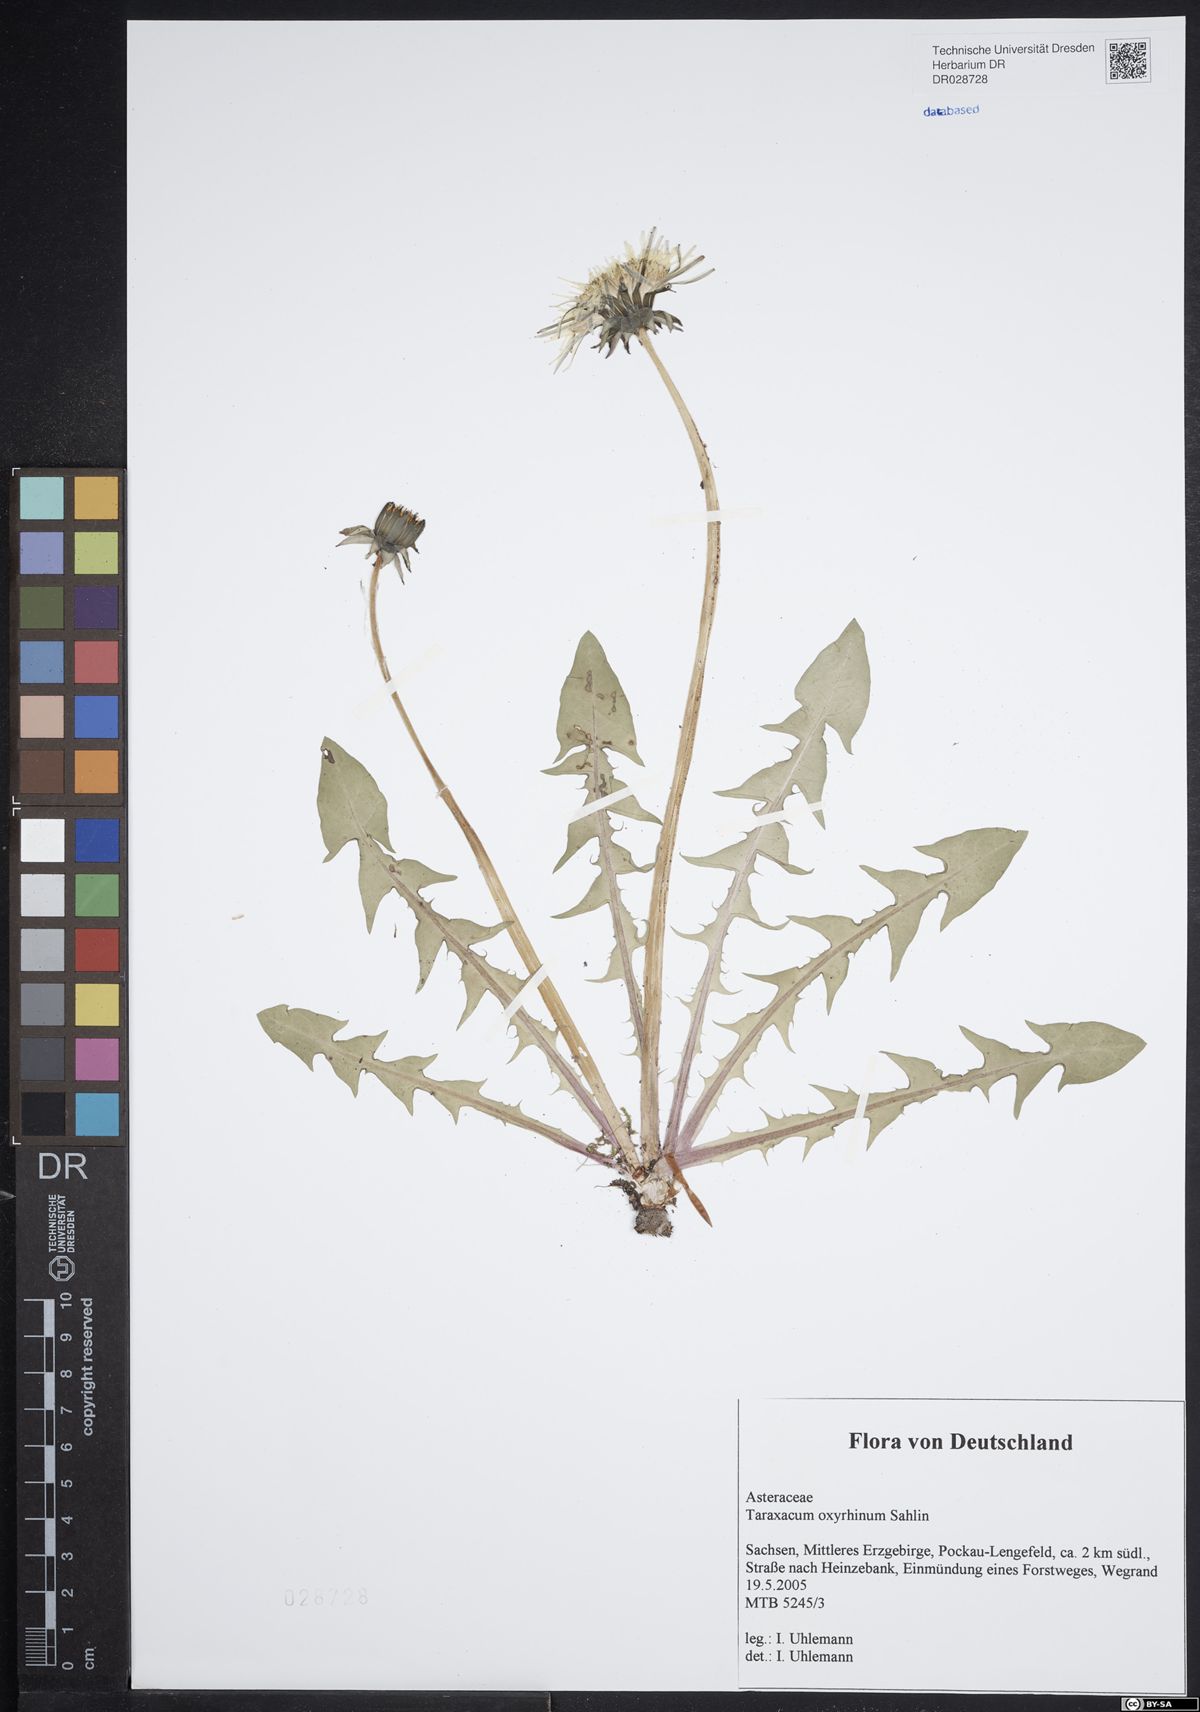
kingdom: Plantae
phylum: Tracheophyta
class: Magnoliopsida
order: Asterales
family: Asteraceae
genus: Taraxacum
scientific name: Taraxacum oxyrrhinum
